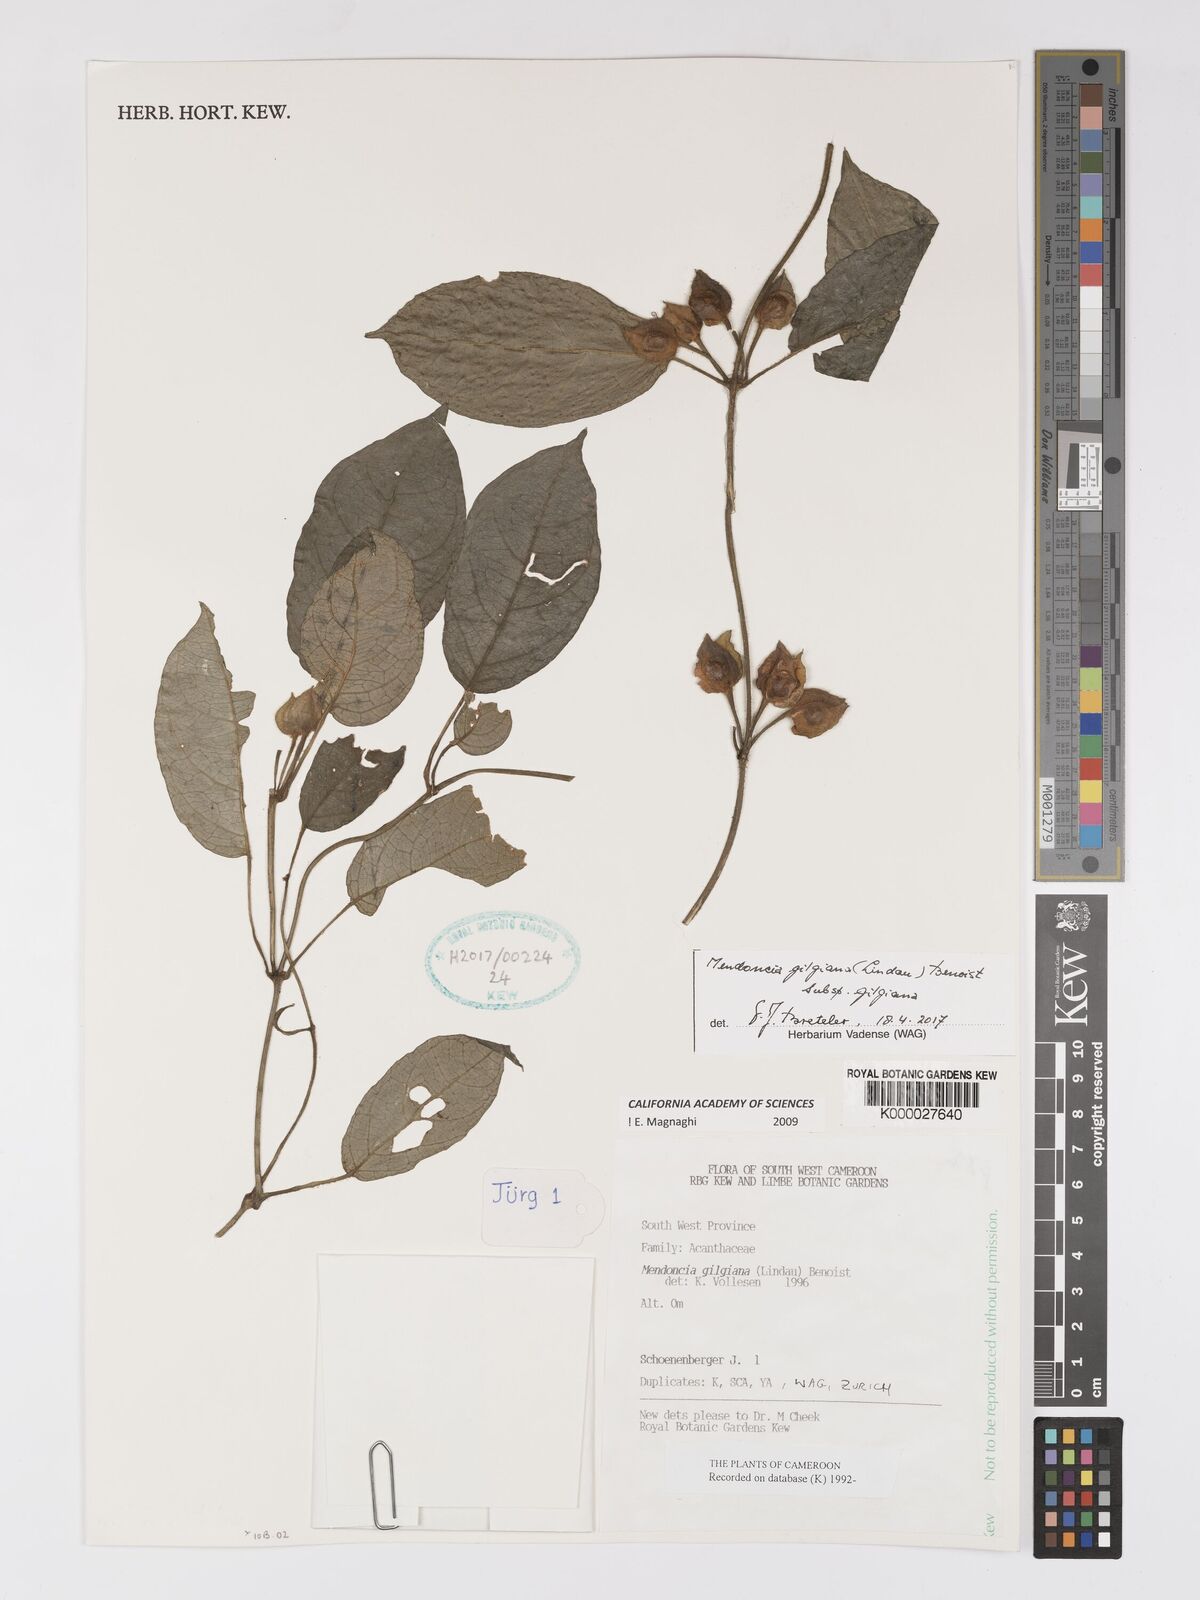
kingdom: Plantae
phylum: Tracheophyta
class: Magnoliopsida
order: Lamiales
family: Acanthaceae
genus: Mendoncia
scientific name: Mendoncia gilgiana
